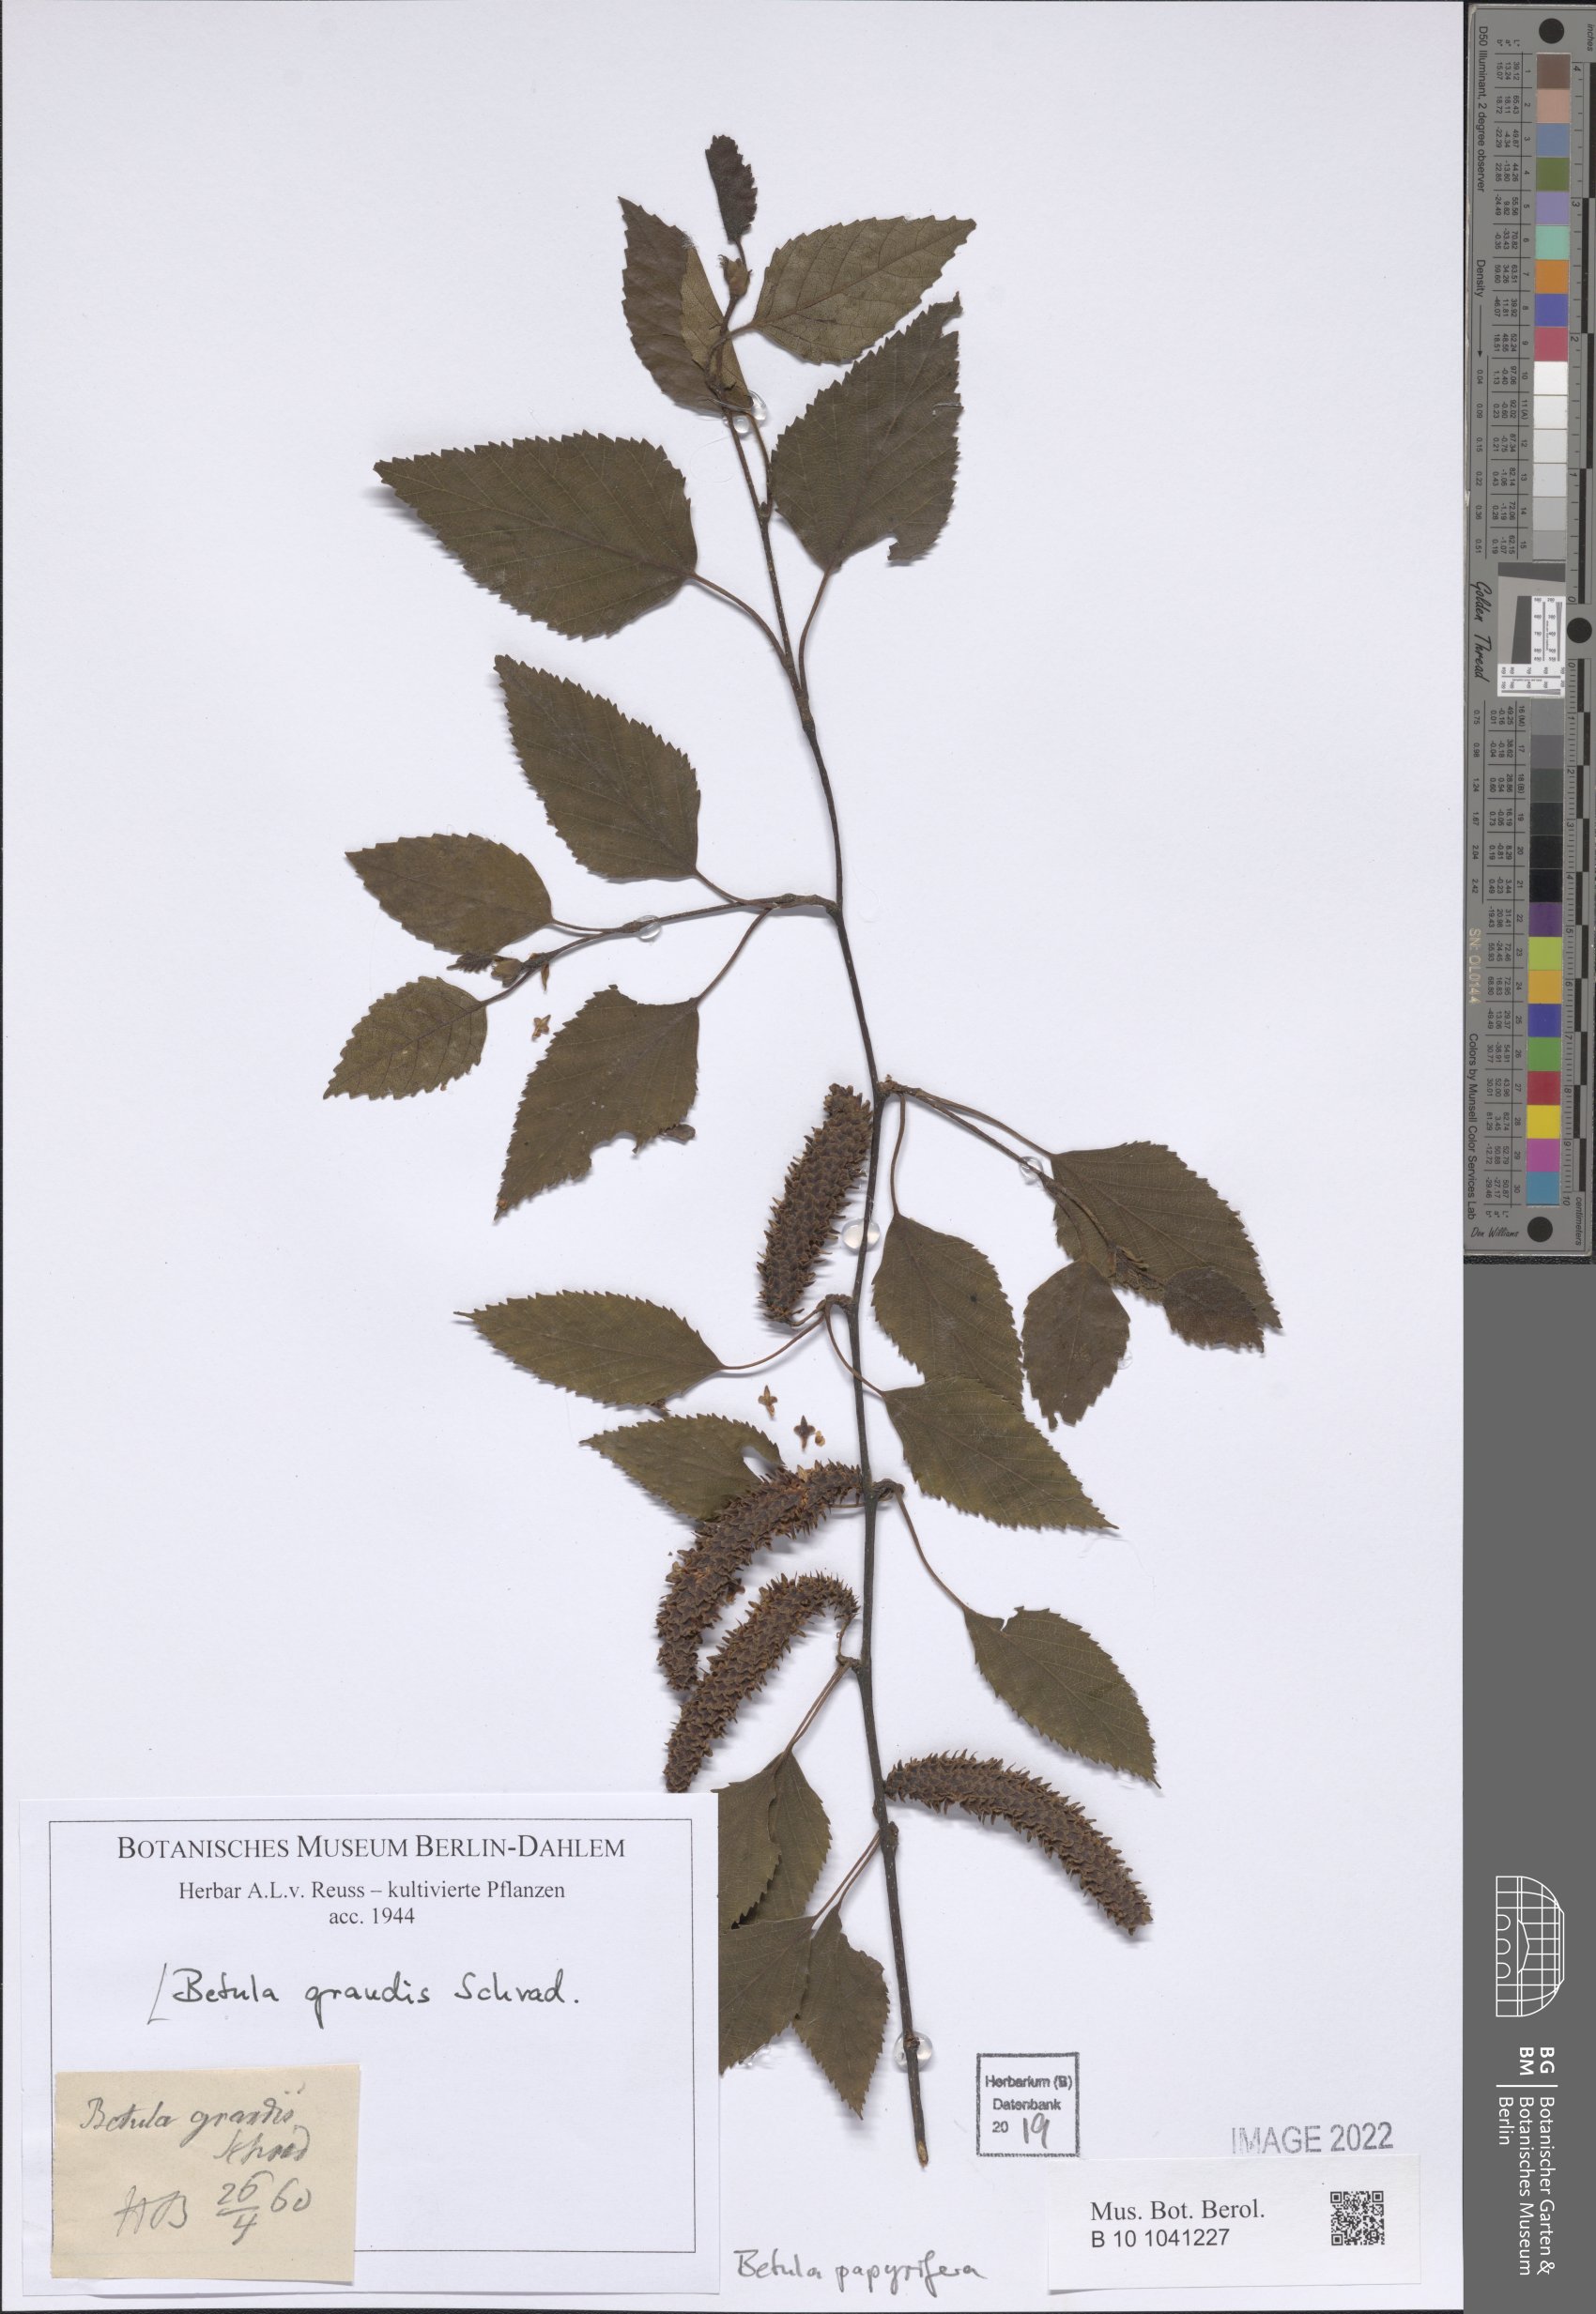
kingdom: Plantae
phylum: Tracheophyta
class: Magnoliopsida
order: Fagales
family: Betulaceae
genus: Betula
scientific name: Betula papyrifera
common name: Paper birch
